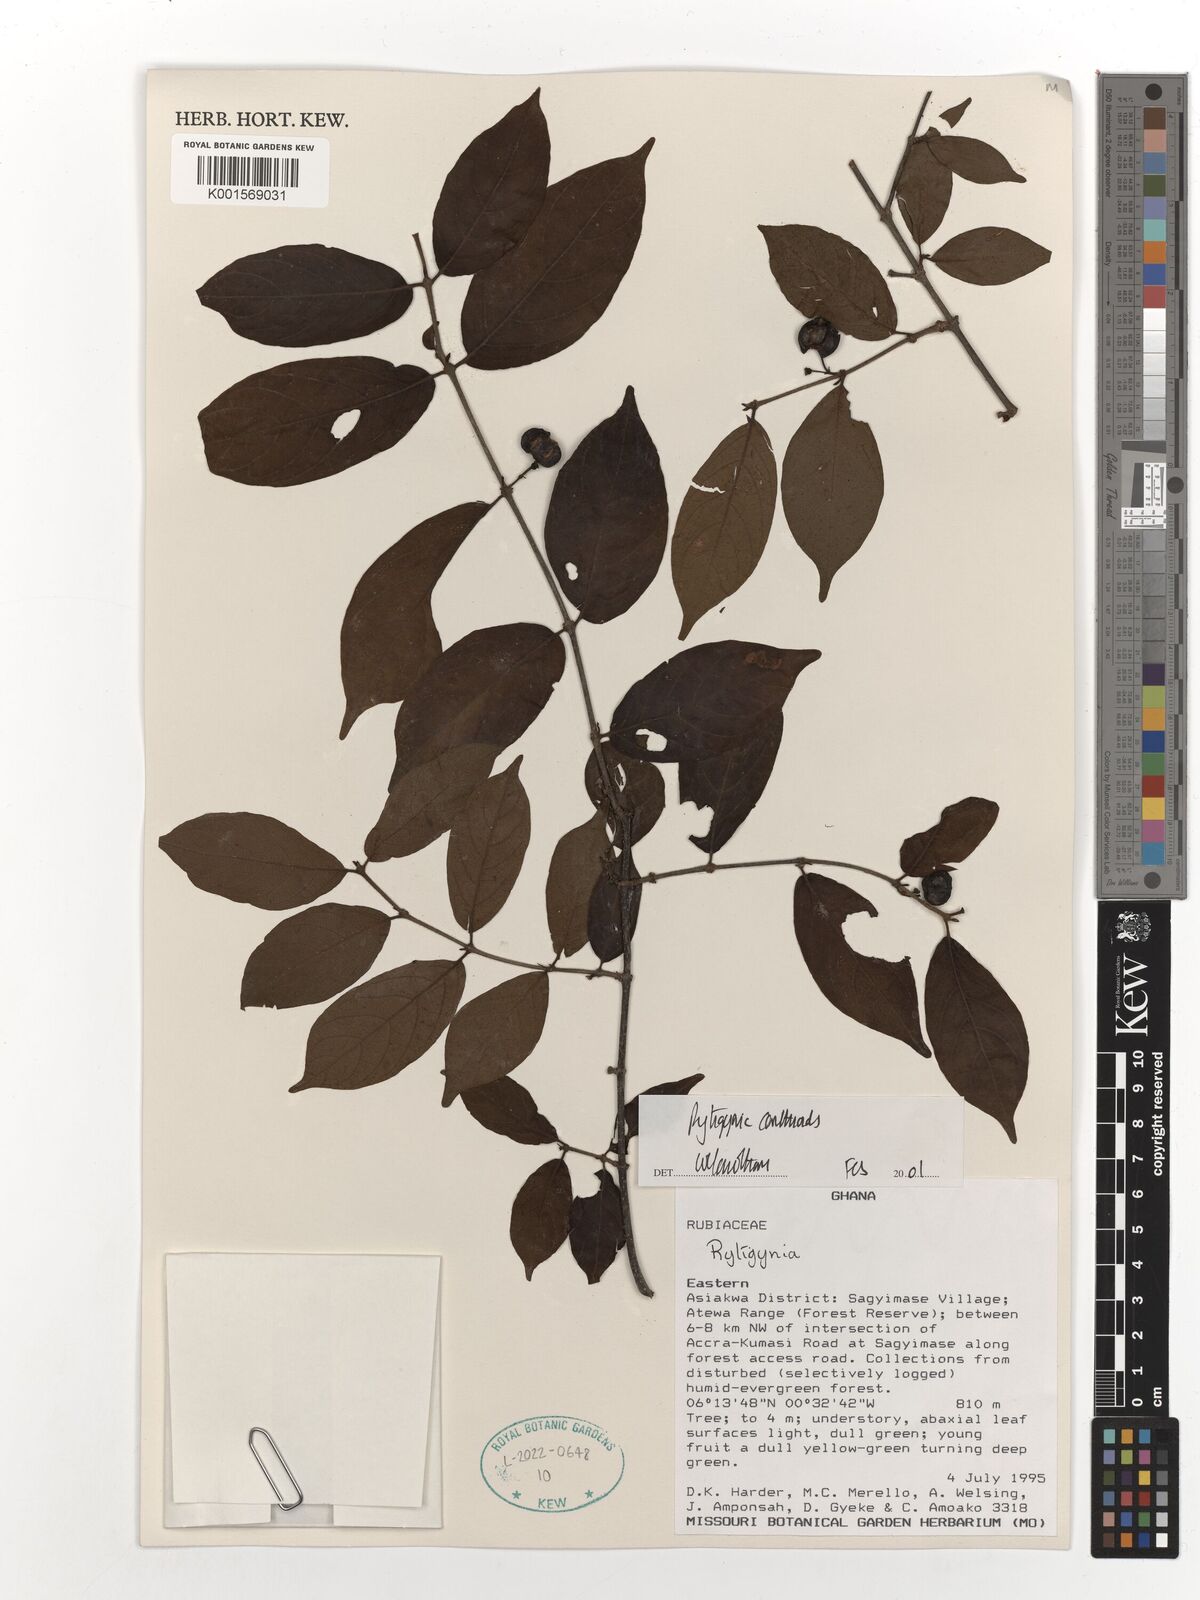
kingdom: Plantae
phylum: Tracheophyta
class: Magnoliopsida
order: Gentianales
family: Rubiaceae
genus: Rytigynia
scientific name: Rytigynia canthioides
